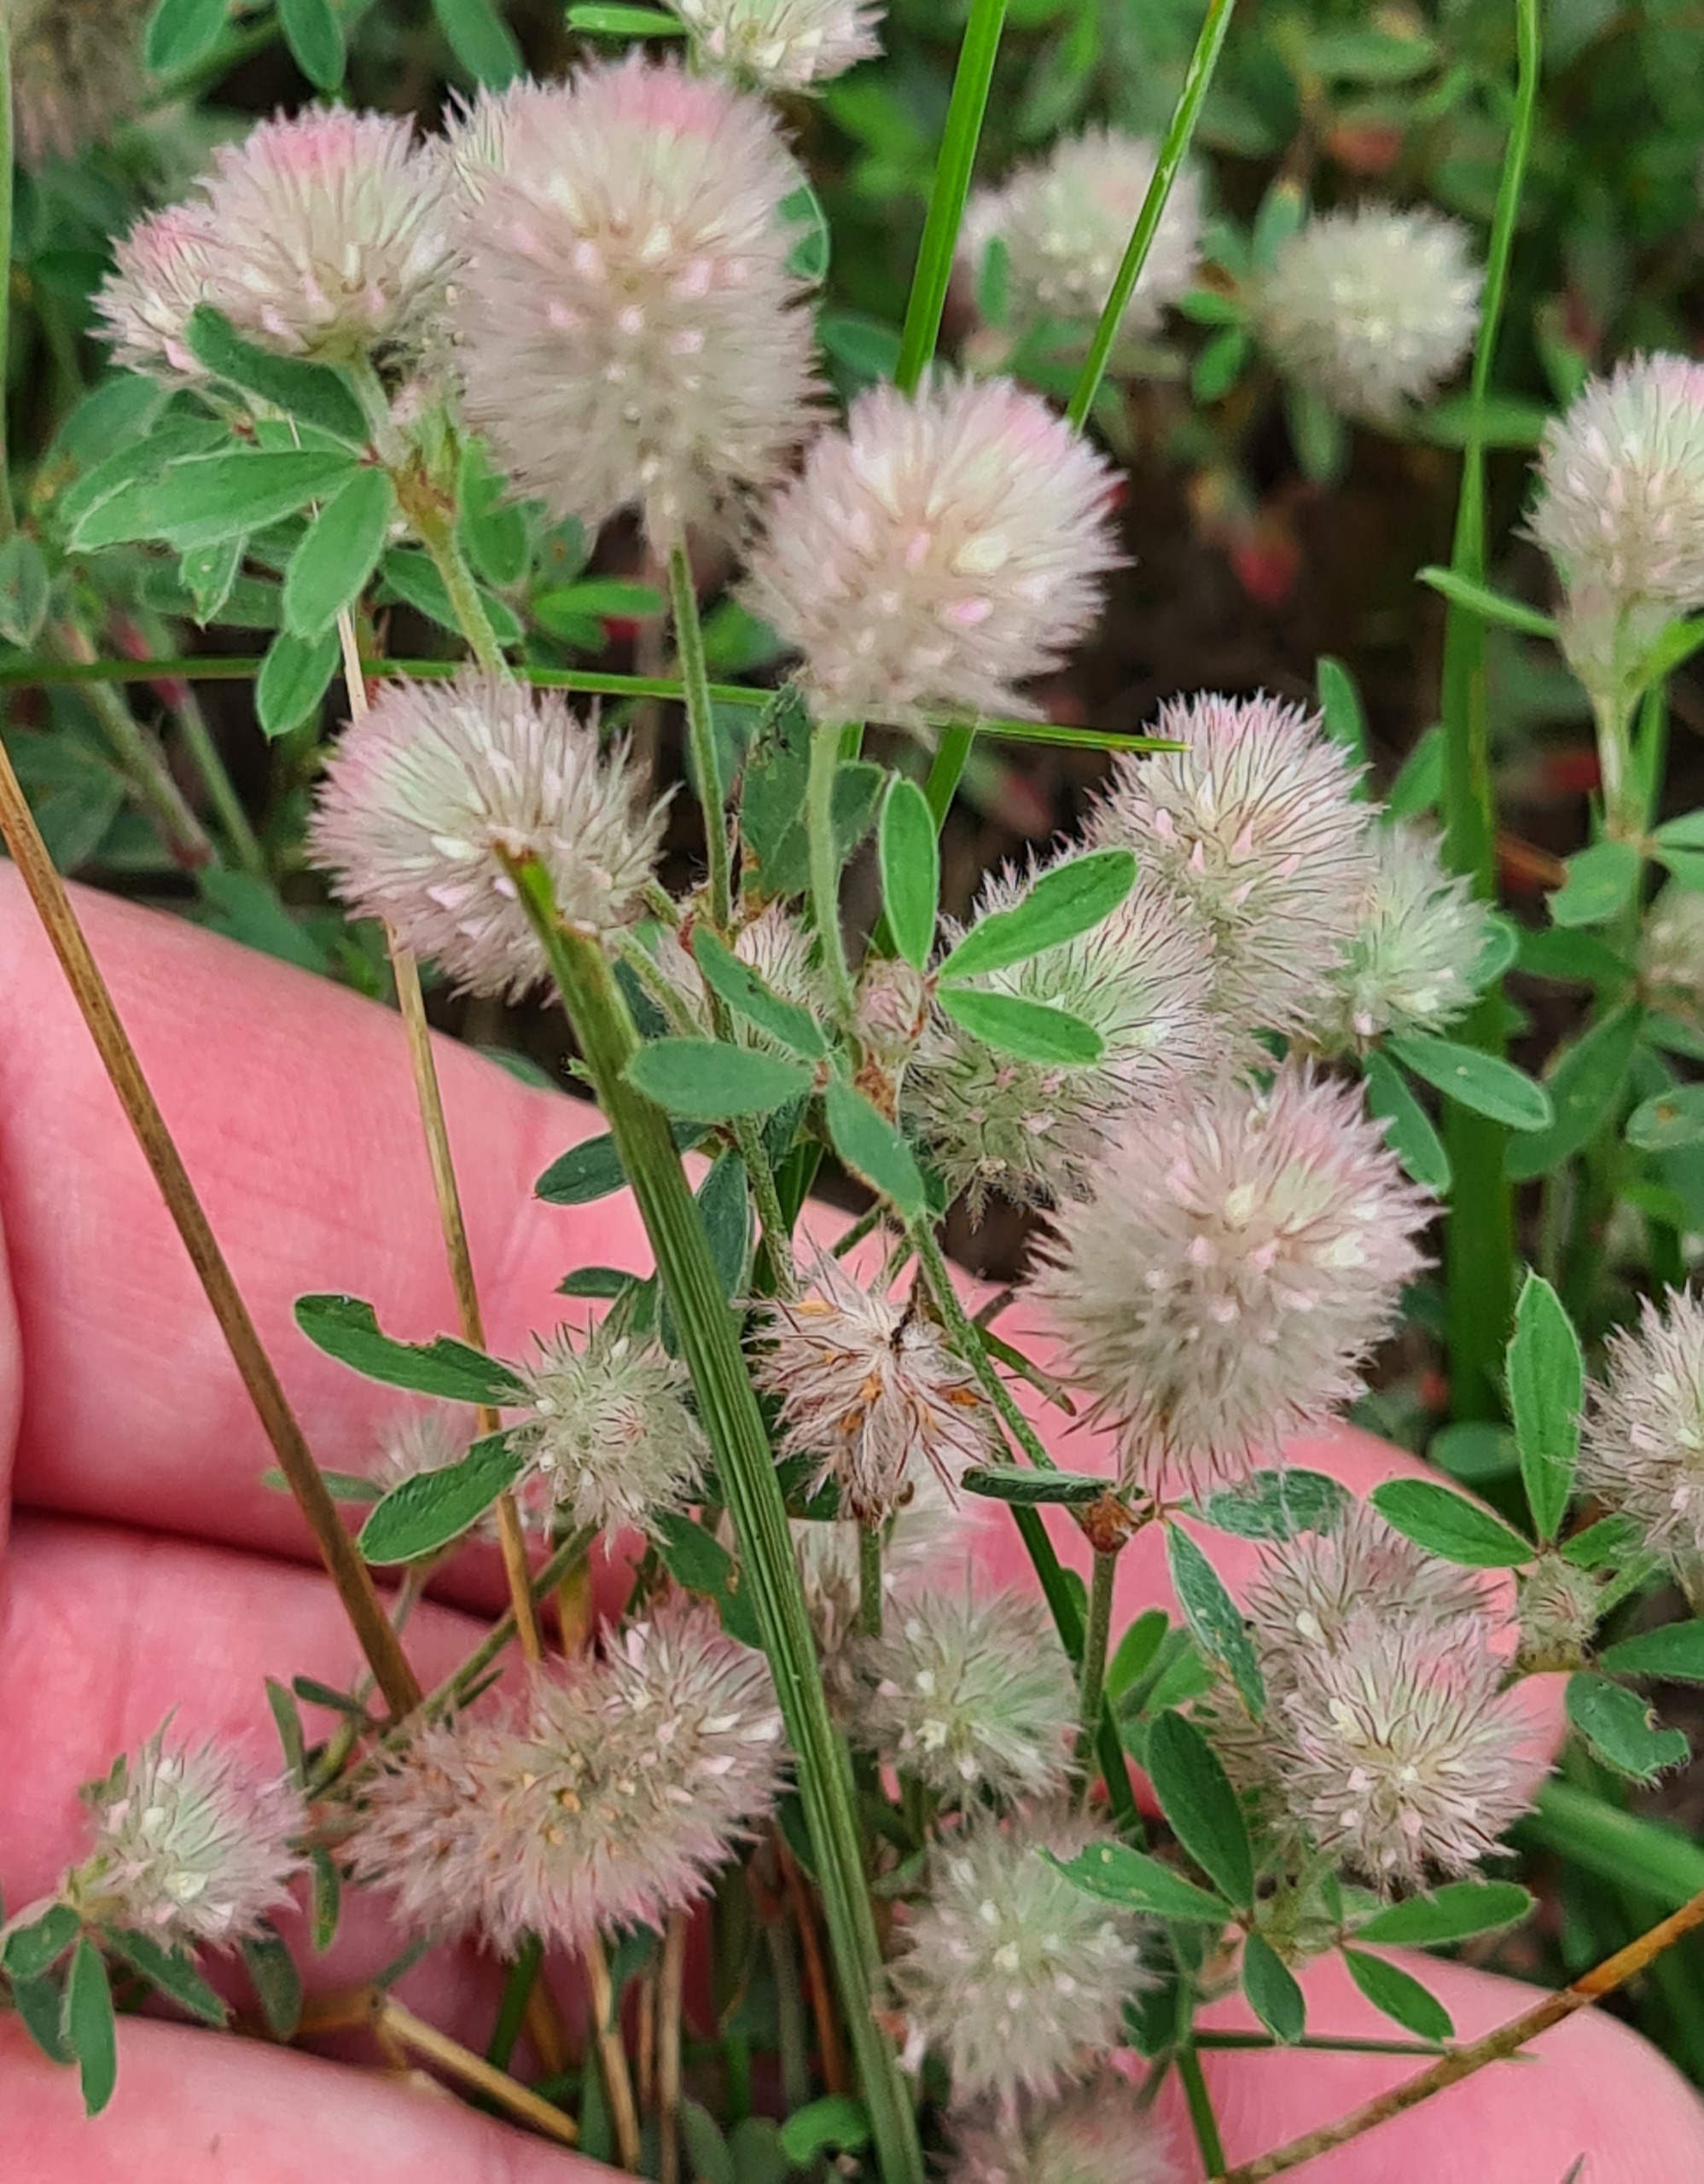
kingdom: Plantae
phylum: Tracheophyta
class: Magnoliopsida
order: Fabales
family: Fabaceae
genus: Trifolium
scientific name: Trifolium arvense
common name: Hare-kløver
